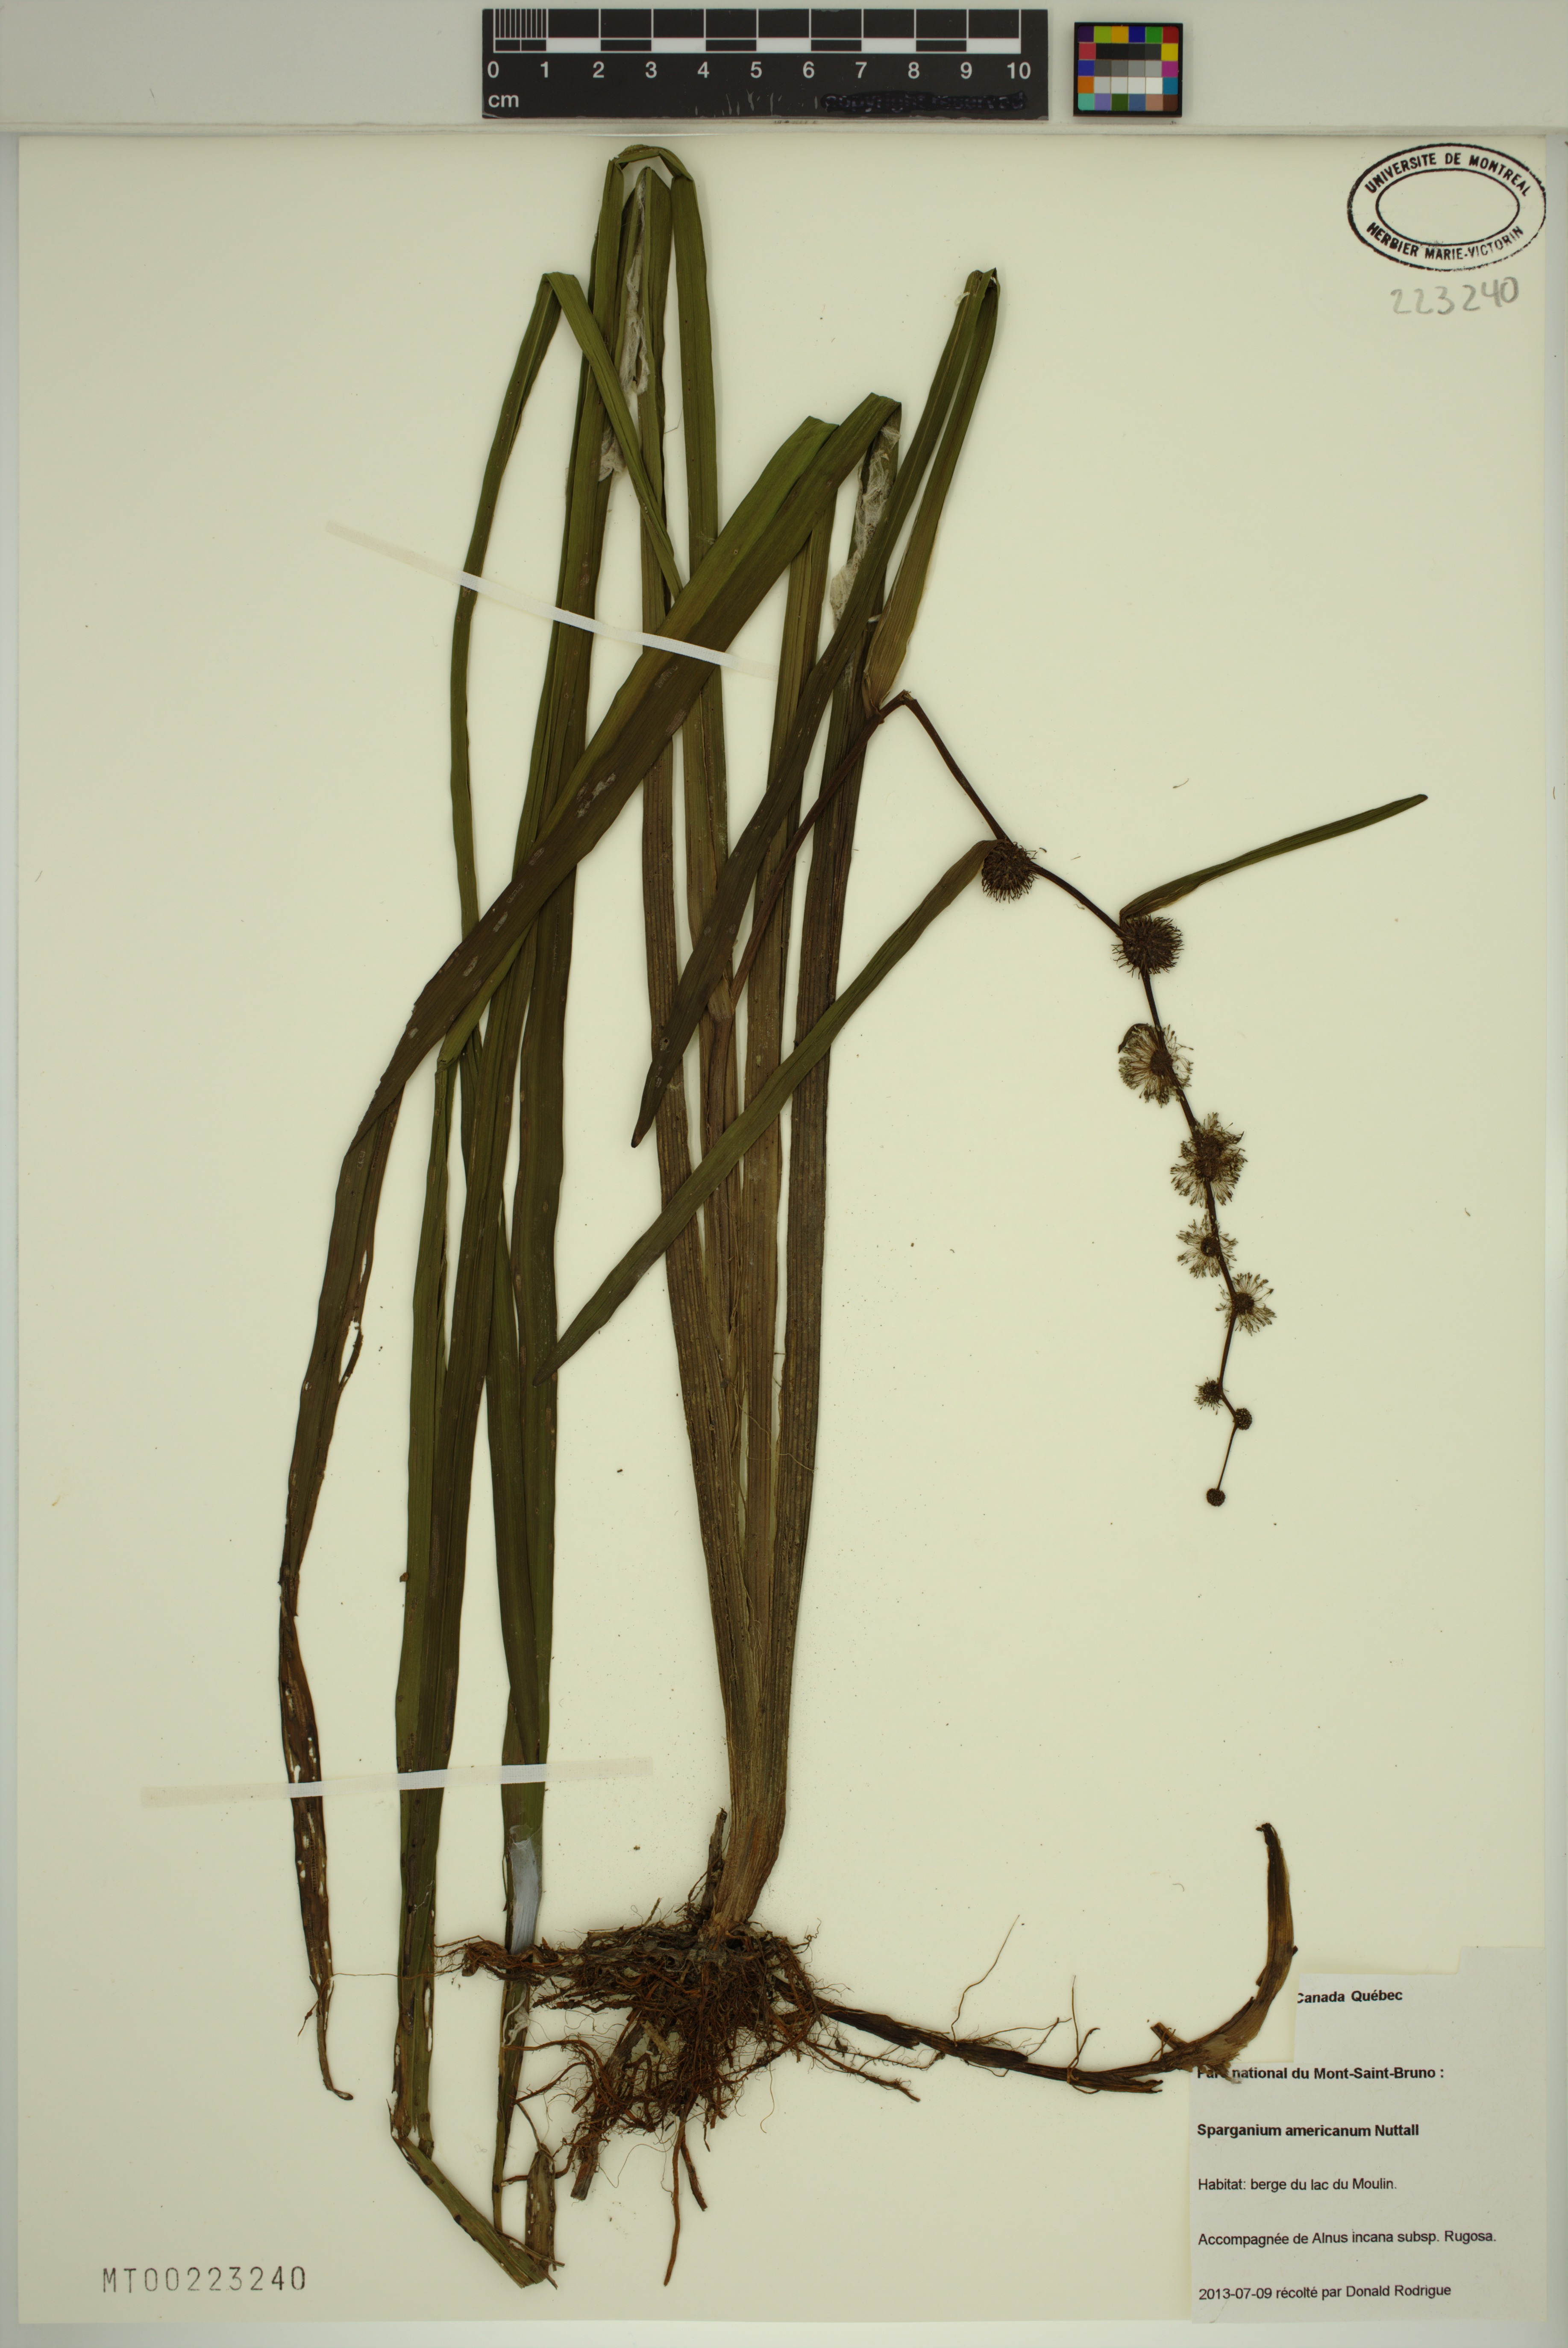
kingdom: Plantae
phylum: Tracheophyta
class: Liliopsida
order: Poales
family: Typhaceae
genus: Sparganium
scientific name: Sparganium americanum
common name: American burreed
